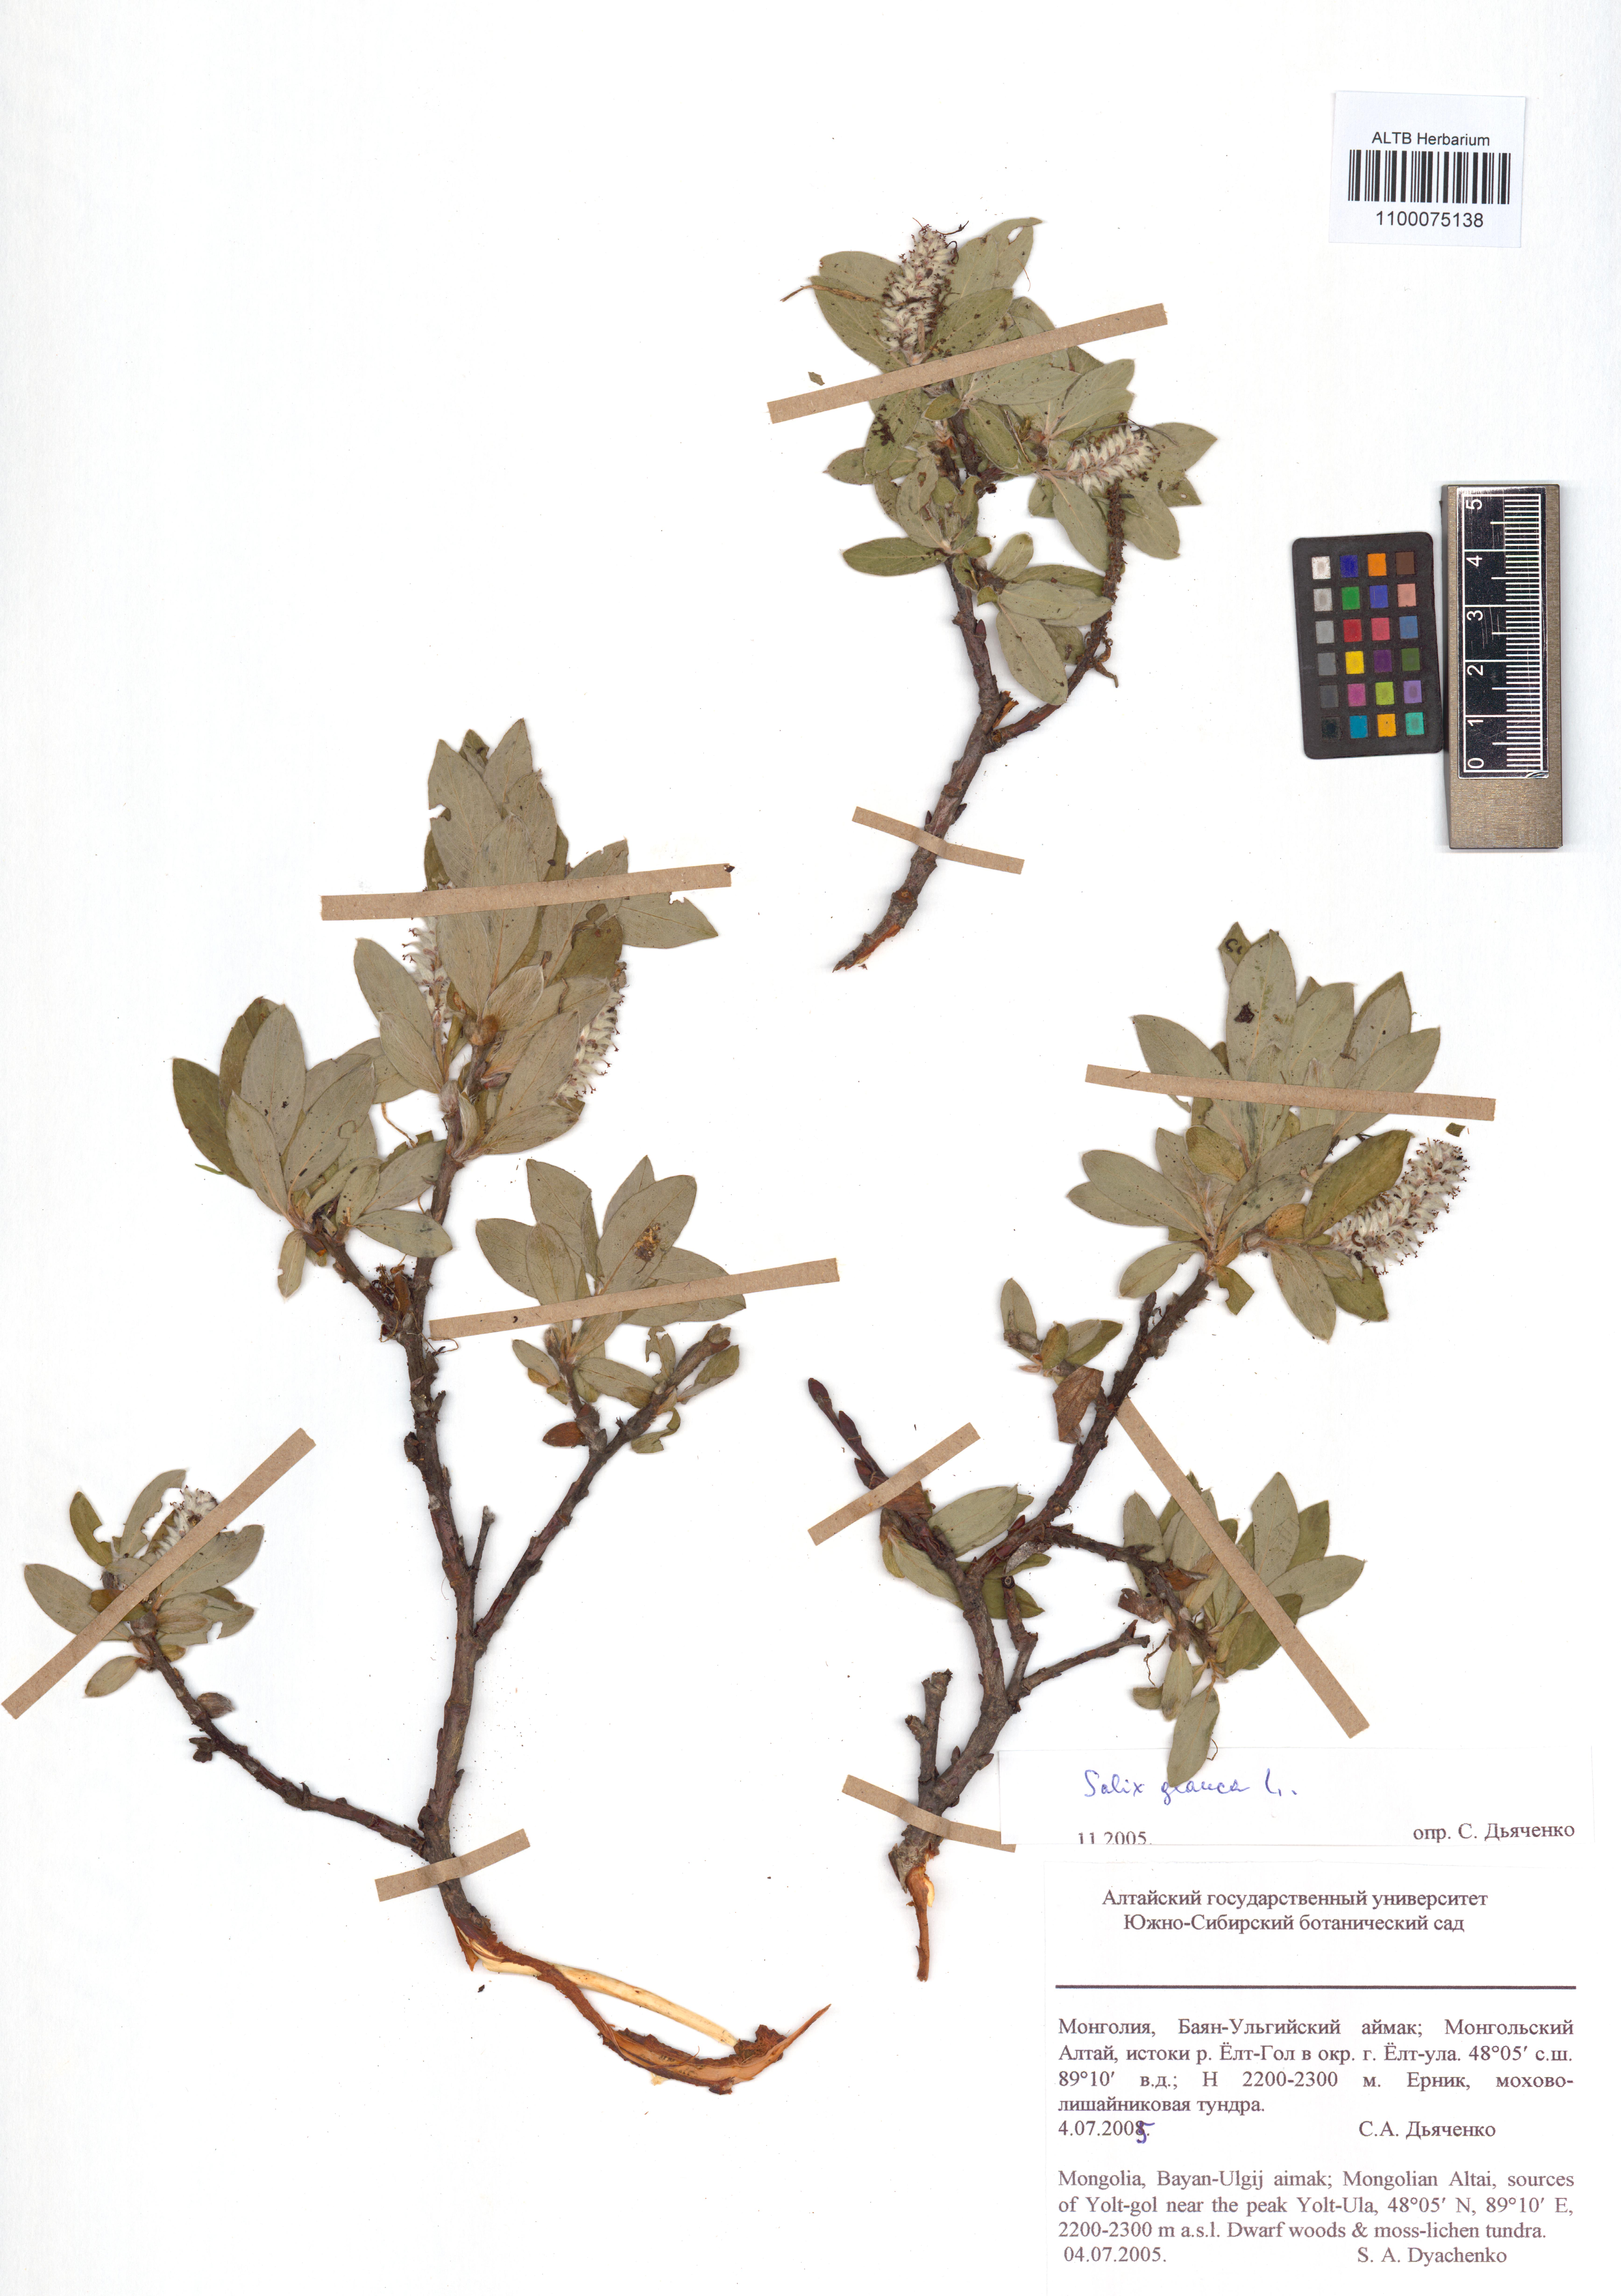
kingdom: Plantae
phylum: Tracheophyta
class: Magnoliopsida
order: Malpighiales
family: Salicaceae
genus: Salix
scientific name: Salix glauca
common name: Glaucous willow
